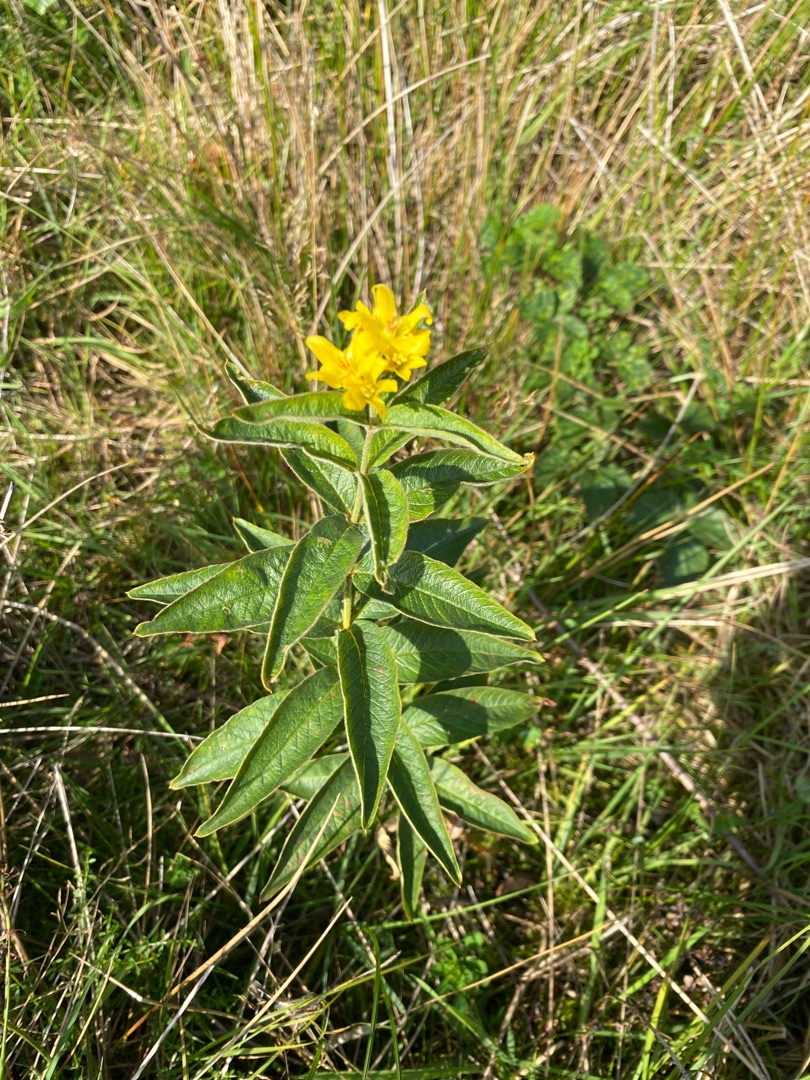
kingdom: Plantae
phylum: Tracheophyta
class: Magnoliopsida
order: Ericales
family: Primulaceae
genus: Lysimachia
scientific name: Lysimachia vulgaris
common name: Almindelig fredløs
